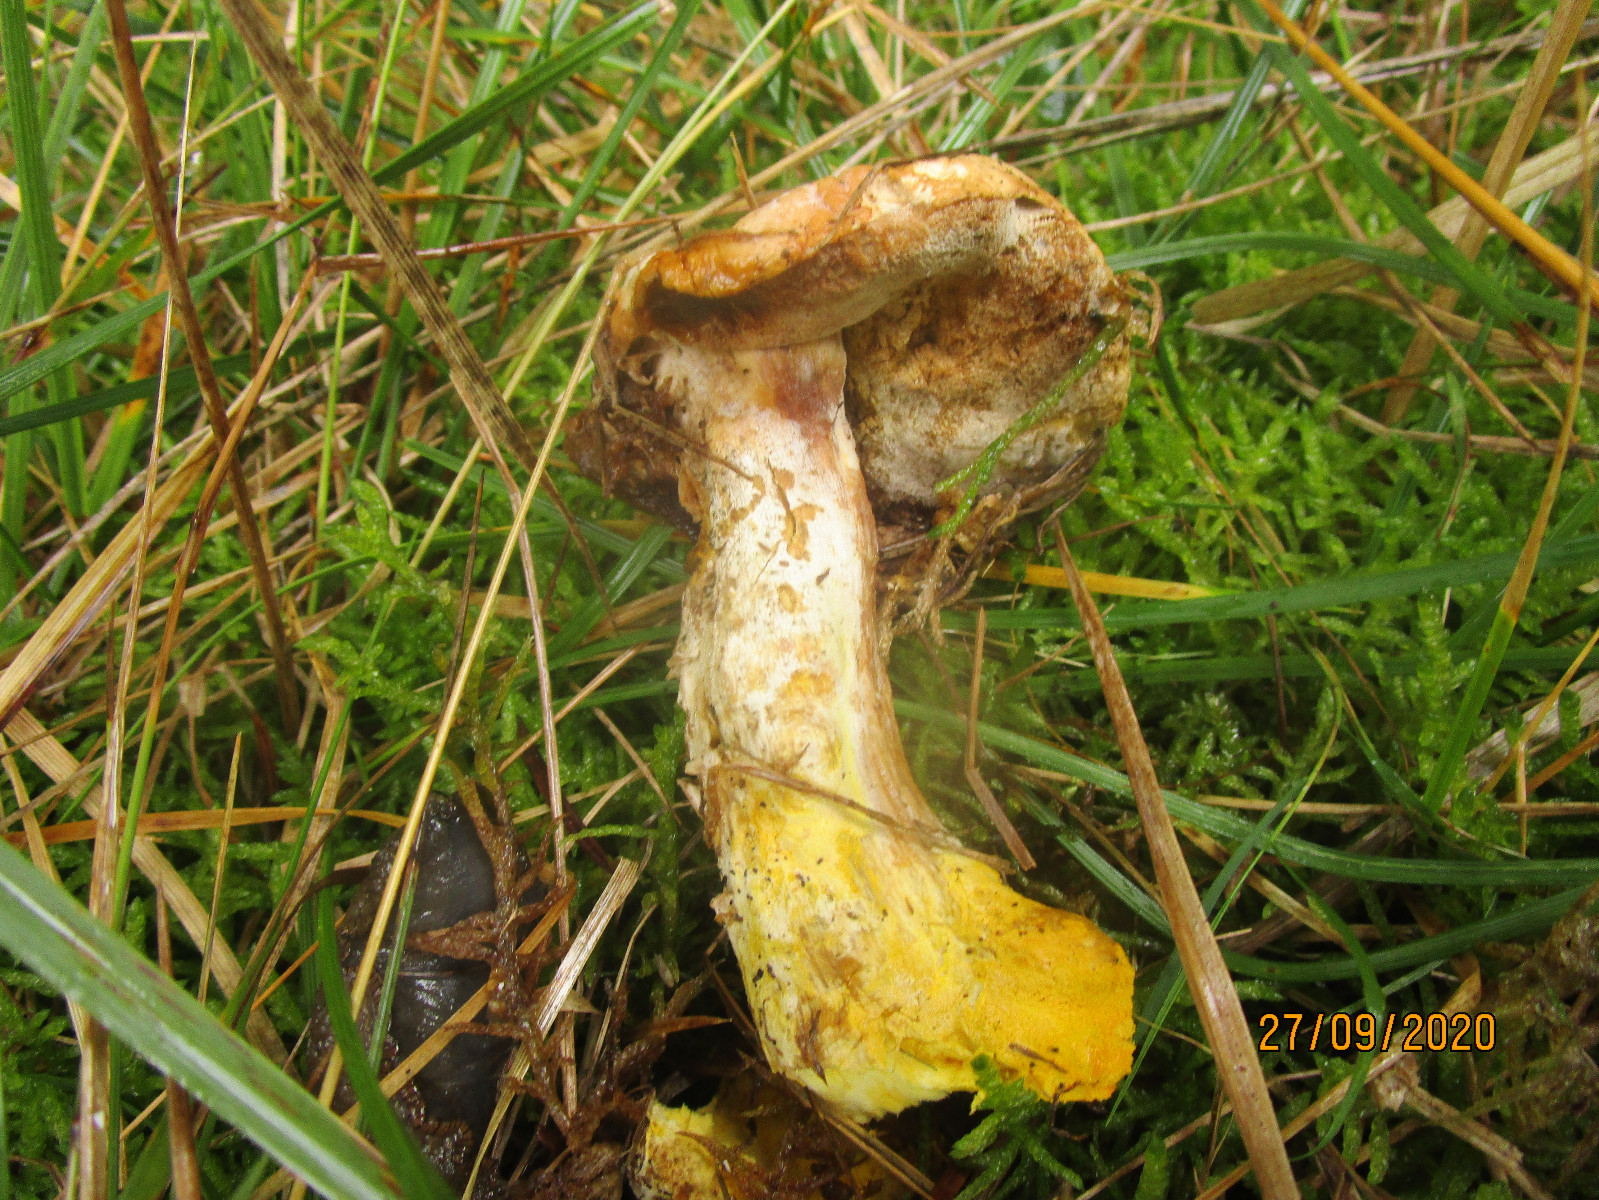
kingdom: Fungi
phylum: Ascomycota
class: Sordariomycetes
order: Hypocreales
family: Hypocreaceae
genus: Hypomyces
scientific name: Hypomyces chrysospermus
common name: gulskimmel-snylteskorpe
